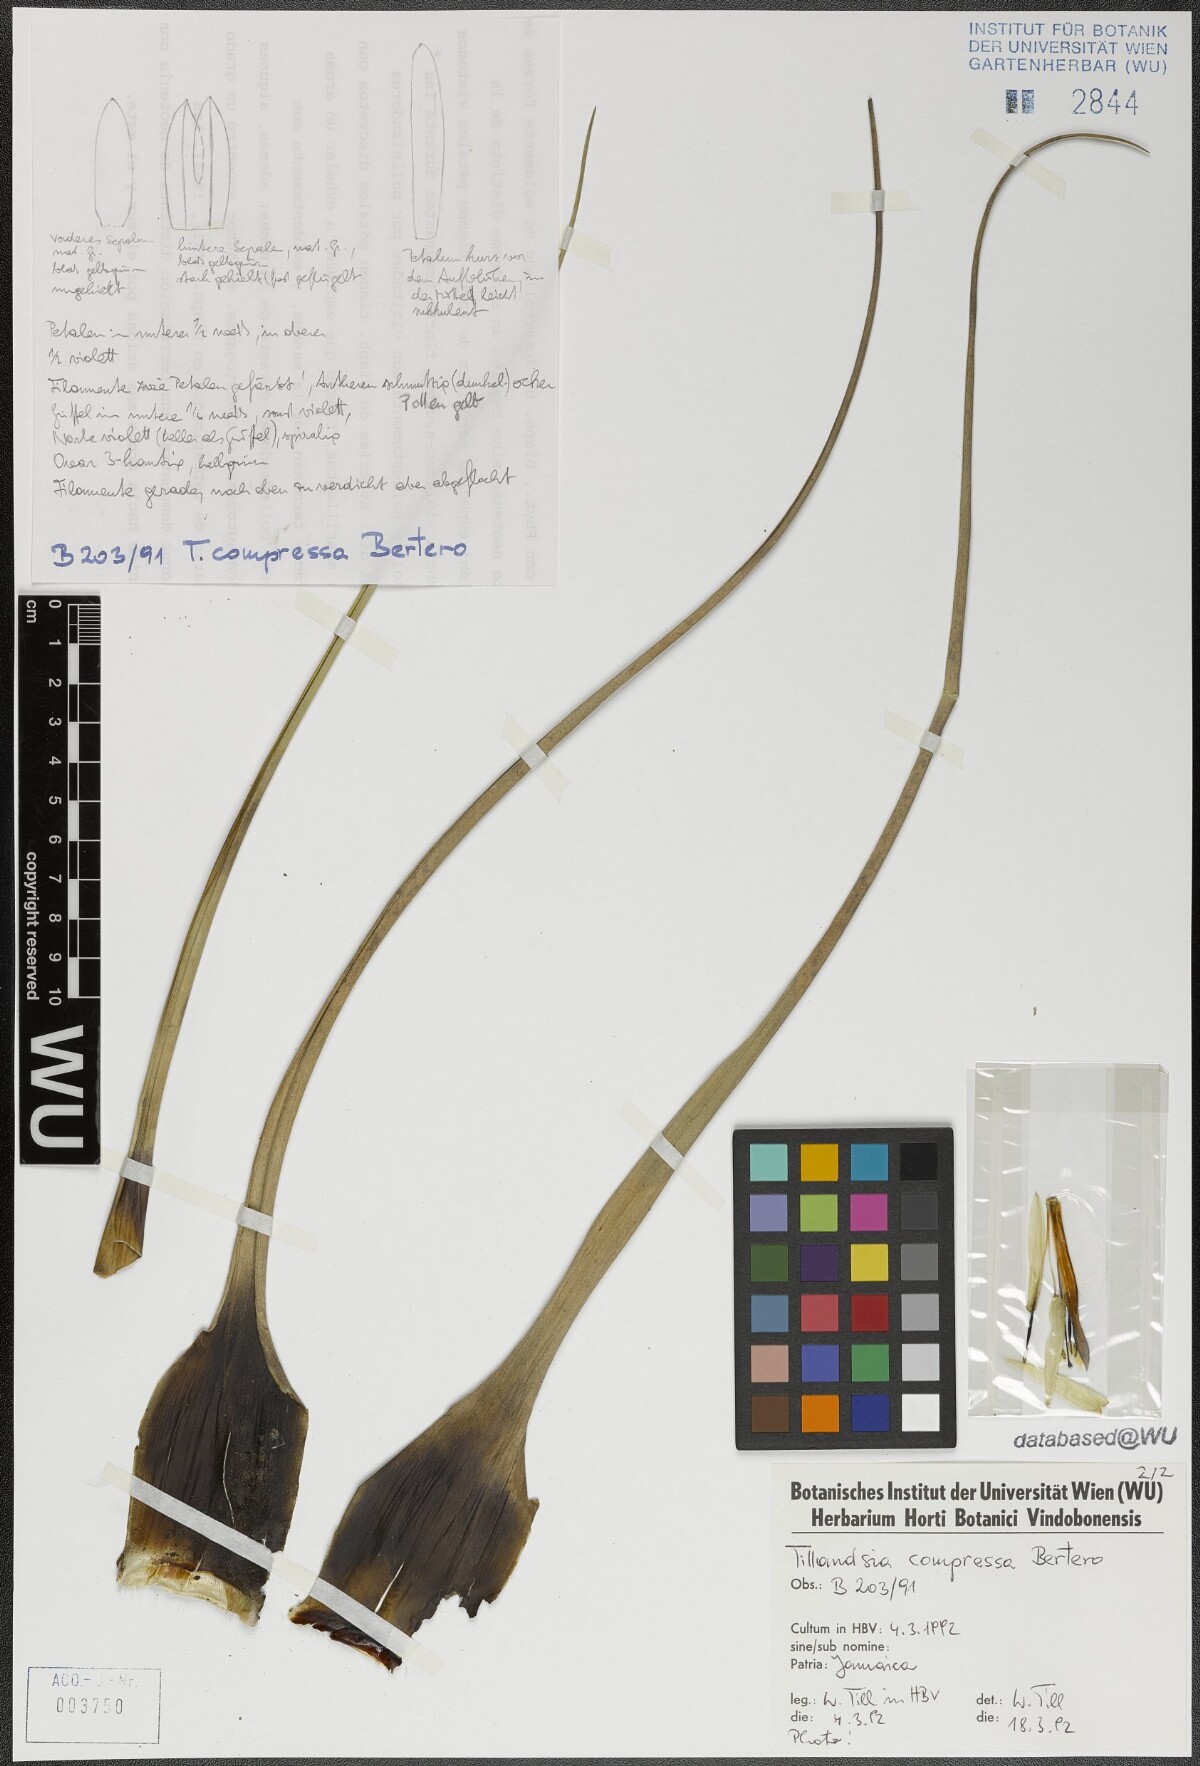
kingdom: Plantae
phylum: Tracheophyta
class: Liliopsida
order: Poales
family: Bromeliaceae
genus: Tillandsia
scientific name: Tillandsia compressa
